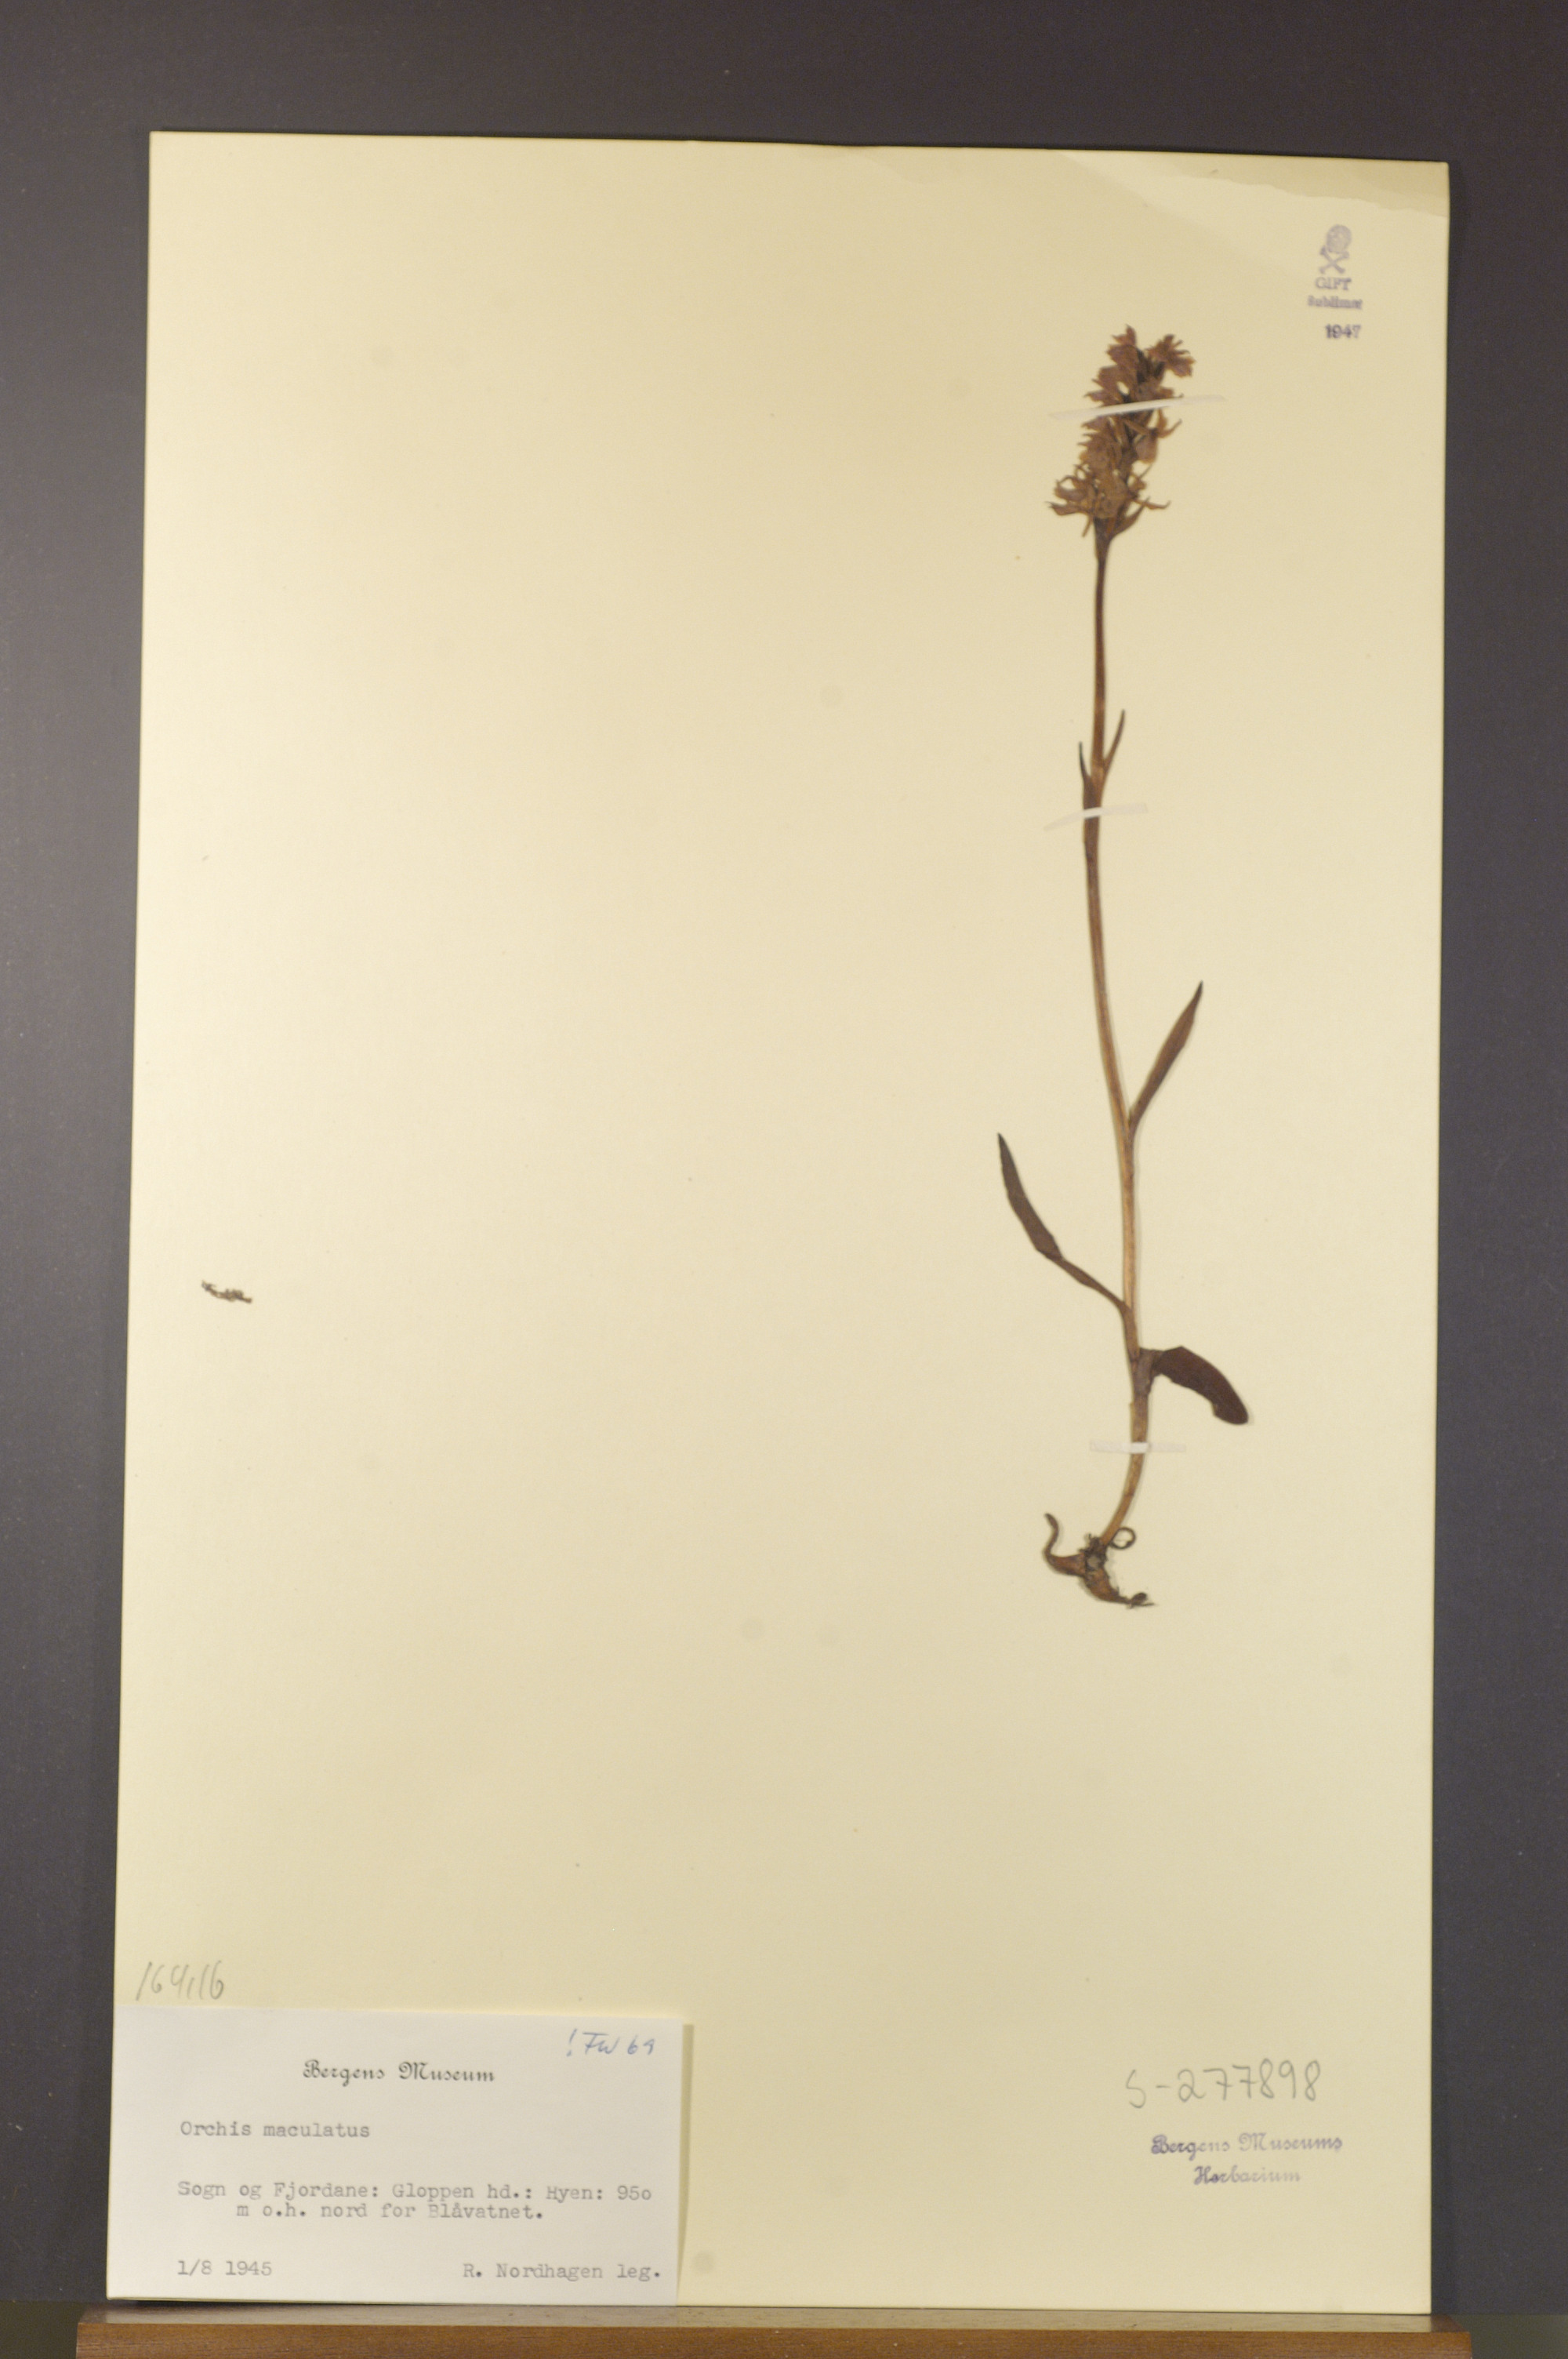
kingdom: Plantae
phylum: Tracheophyta
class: Liliopsida
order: Asparagales
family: Orchidaceae
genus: Dactylorhiza
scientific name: Dactylorhiza maculata
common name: Heath spotted-orchid
